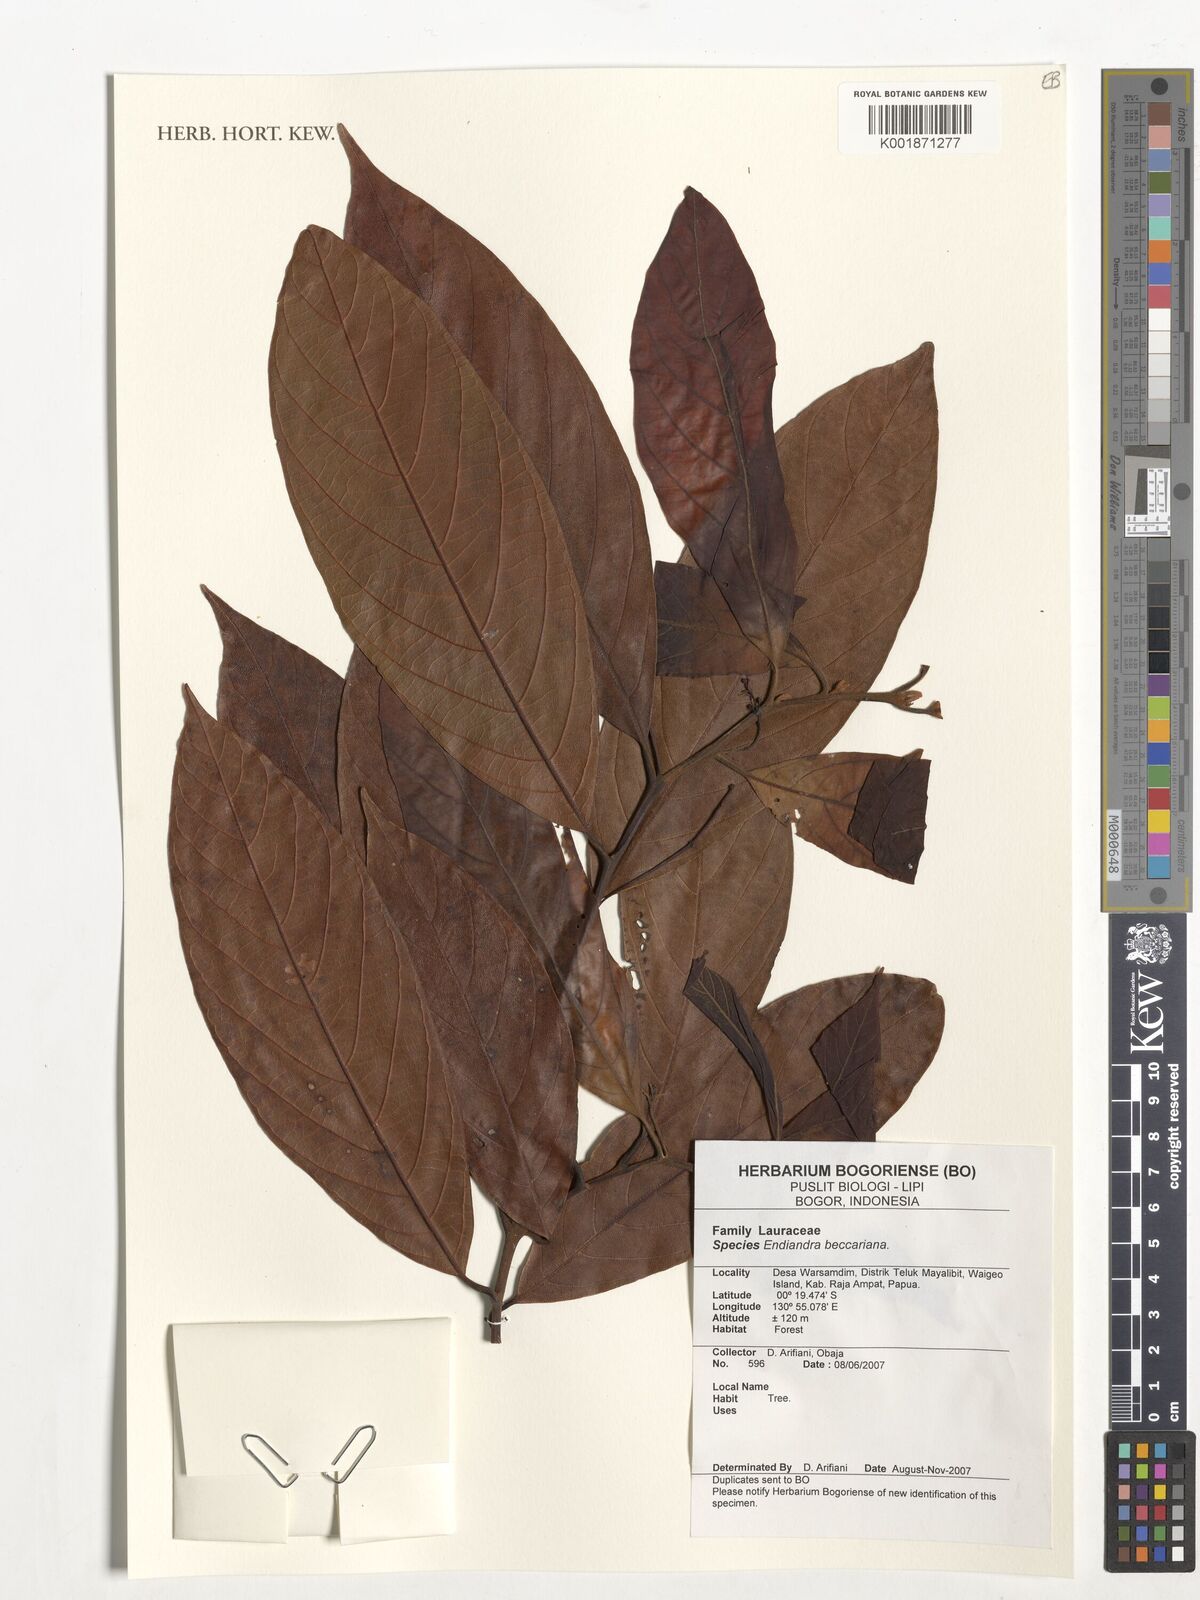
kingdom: Plantae
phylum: Tracheophyta
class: Magnoliopsida
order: Laurales
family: Lauraceae
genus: Endiandra
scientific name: Endiandra beccariana
